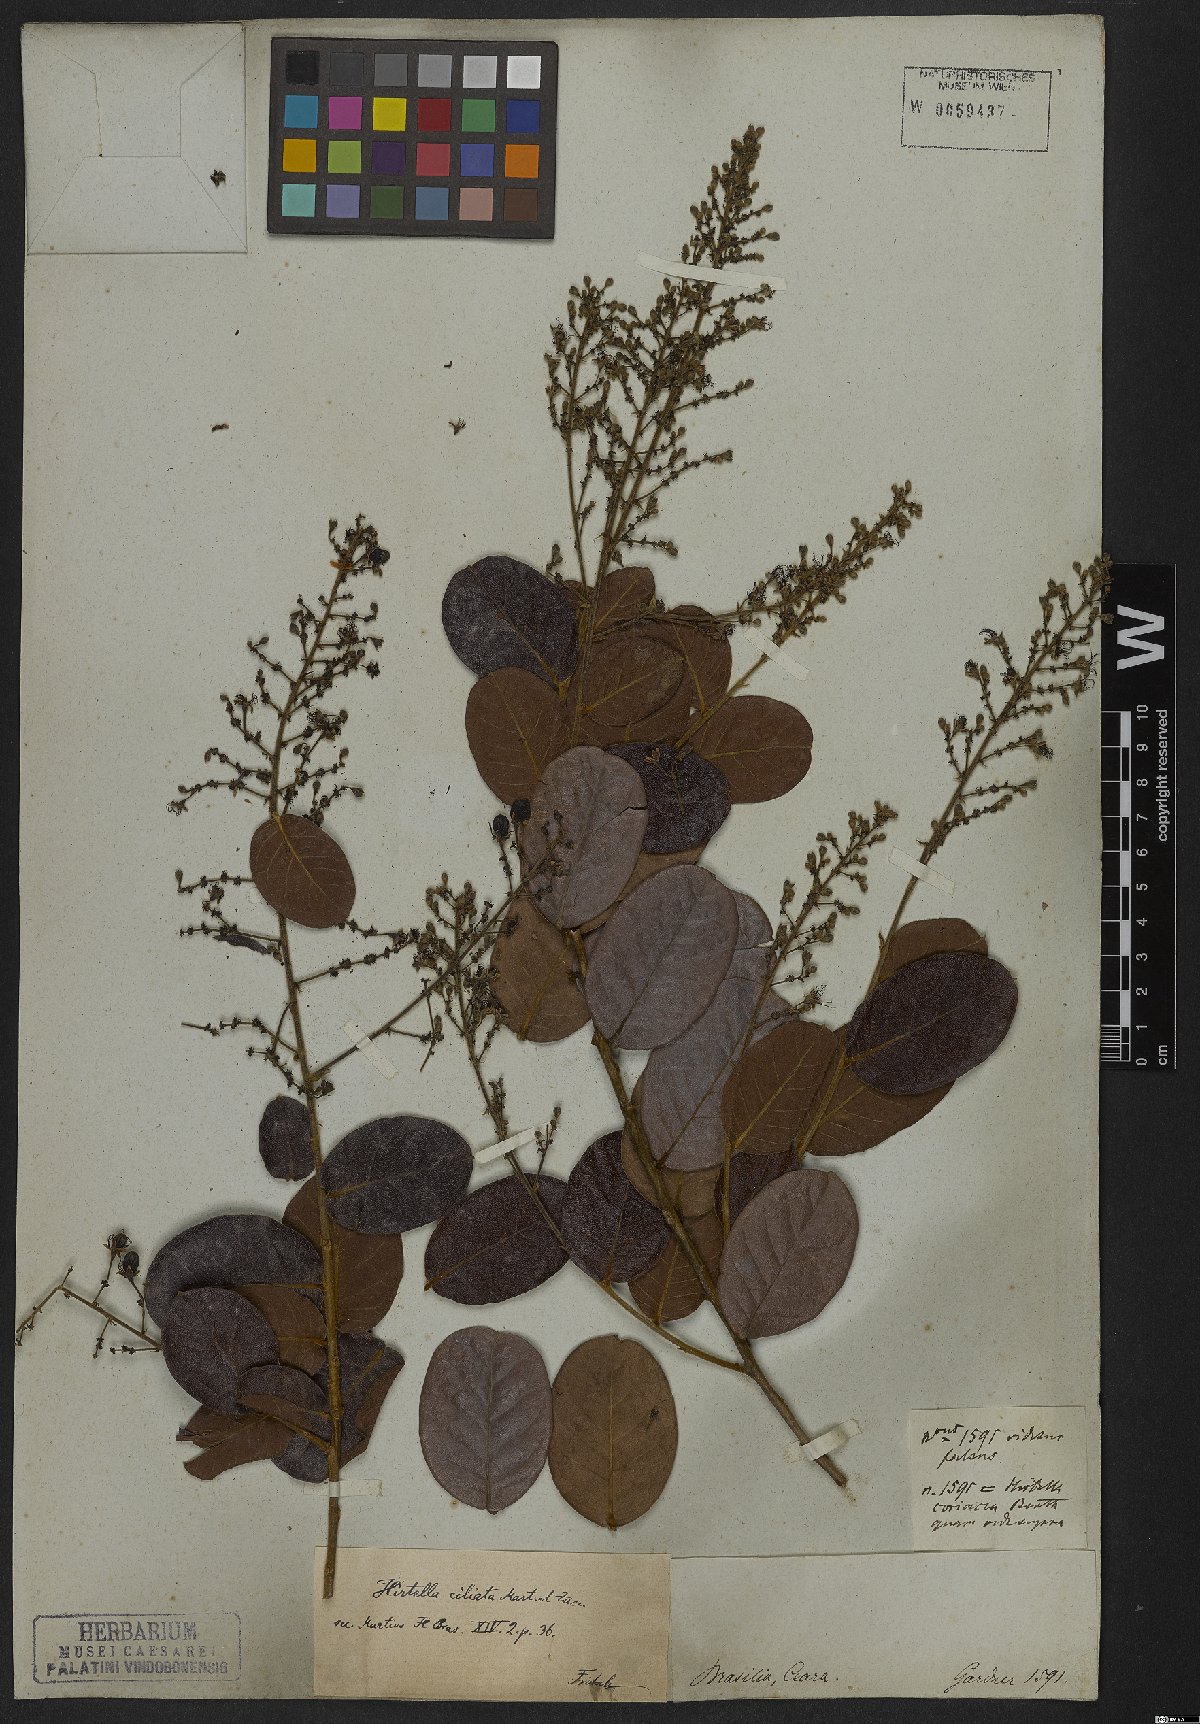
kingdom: Plantae
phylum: Tracheophyta
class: Magnoliopsida
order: Malpighiales
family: Chrysobalanaceae
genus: Hirtella
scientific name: Hirtella ciliata
